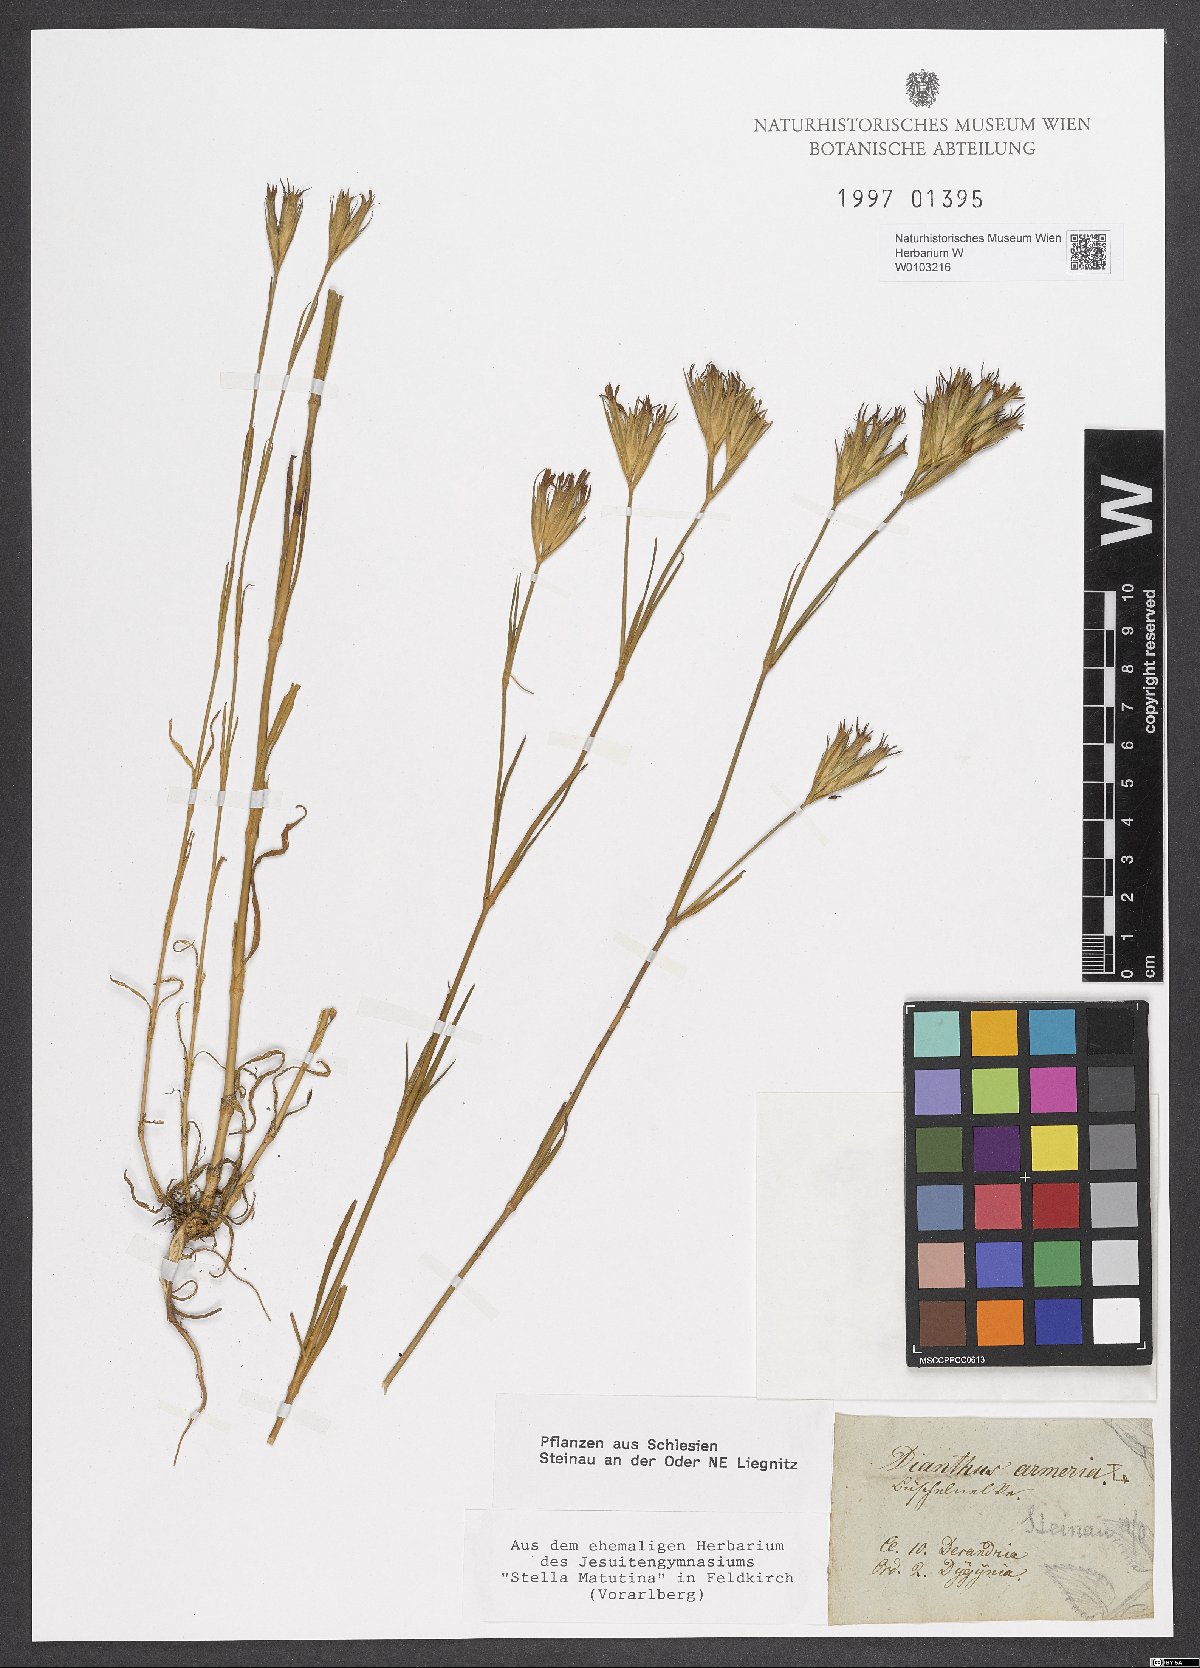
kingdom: Plantae
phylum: Tracheophyta
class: Magnoliopsida
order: Caryophyllales
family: Caryophyllaceae
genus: Dianthus
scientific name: Dianthus armeria
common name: Deptford pink
